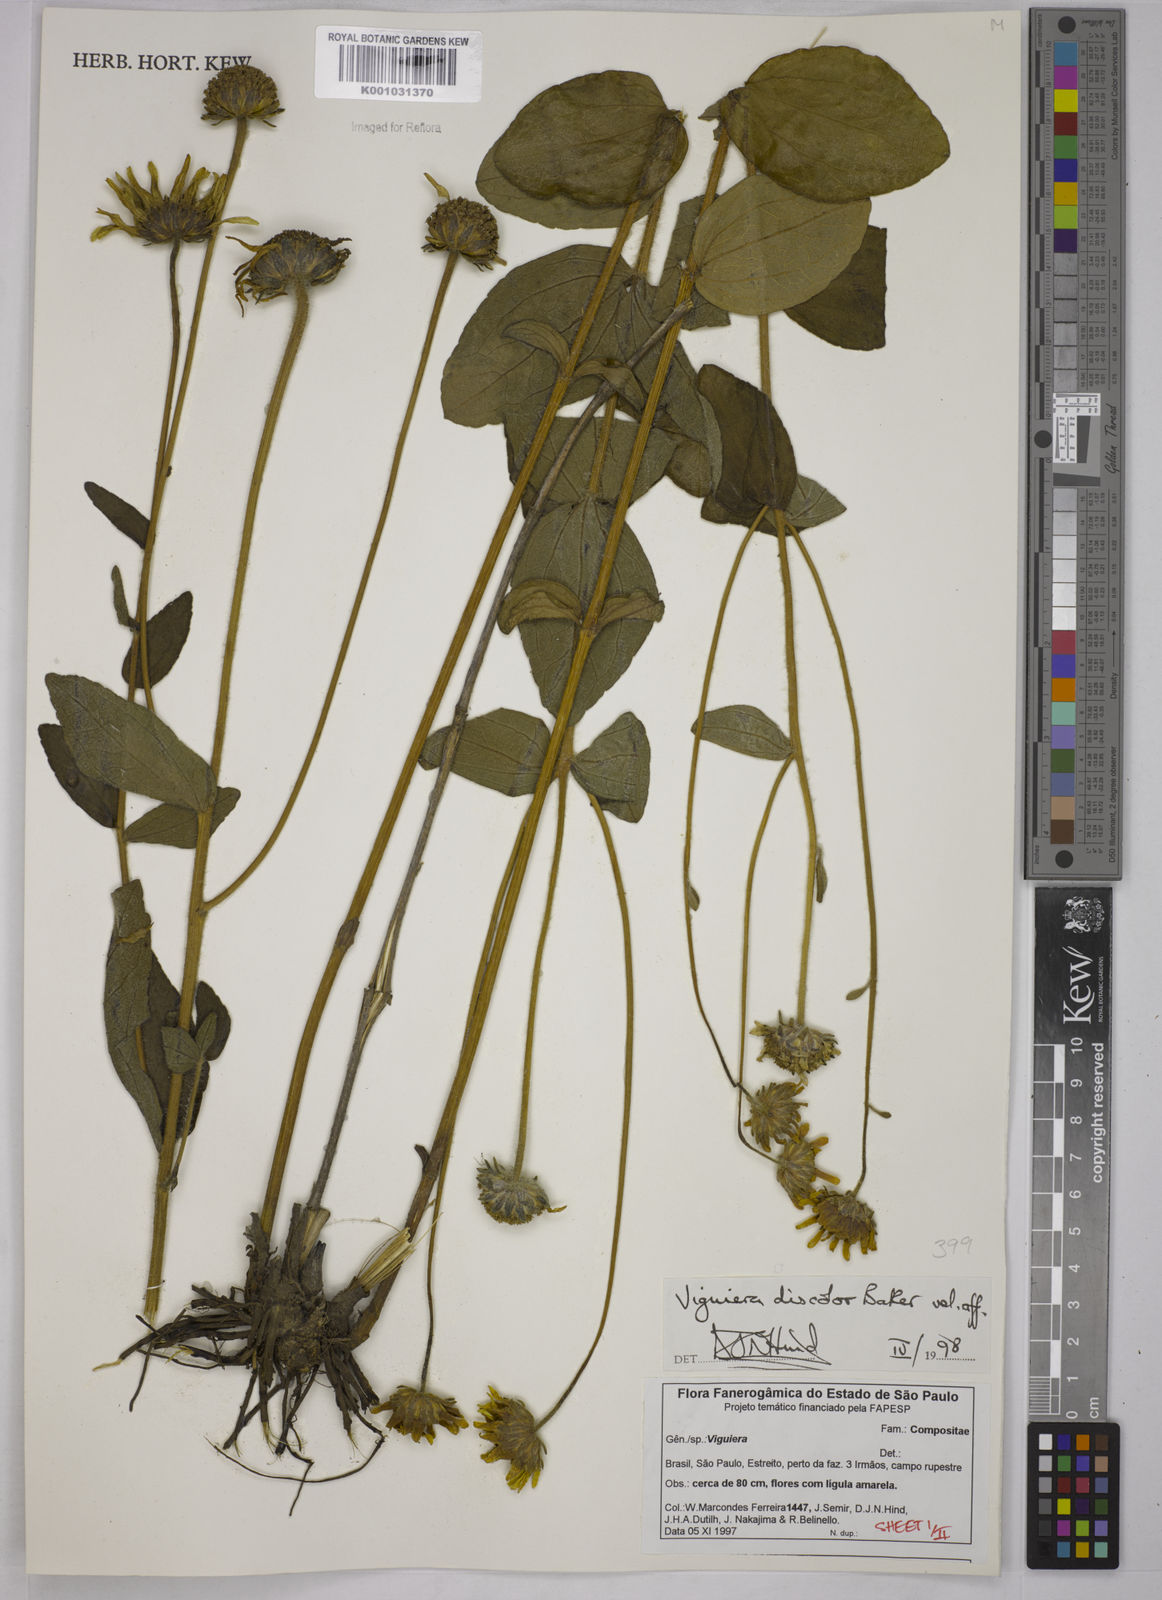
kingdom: Plantae
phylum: Tracheophyta
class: Magnoliopsida
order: Asterales
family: Asteraceae
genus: Aldama
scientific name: Aldama discolor
